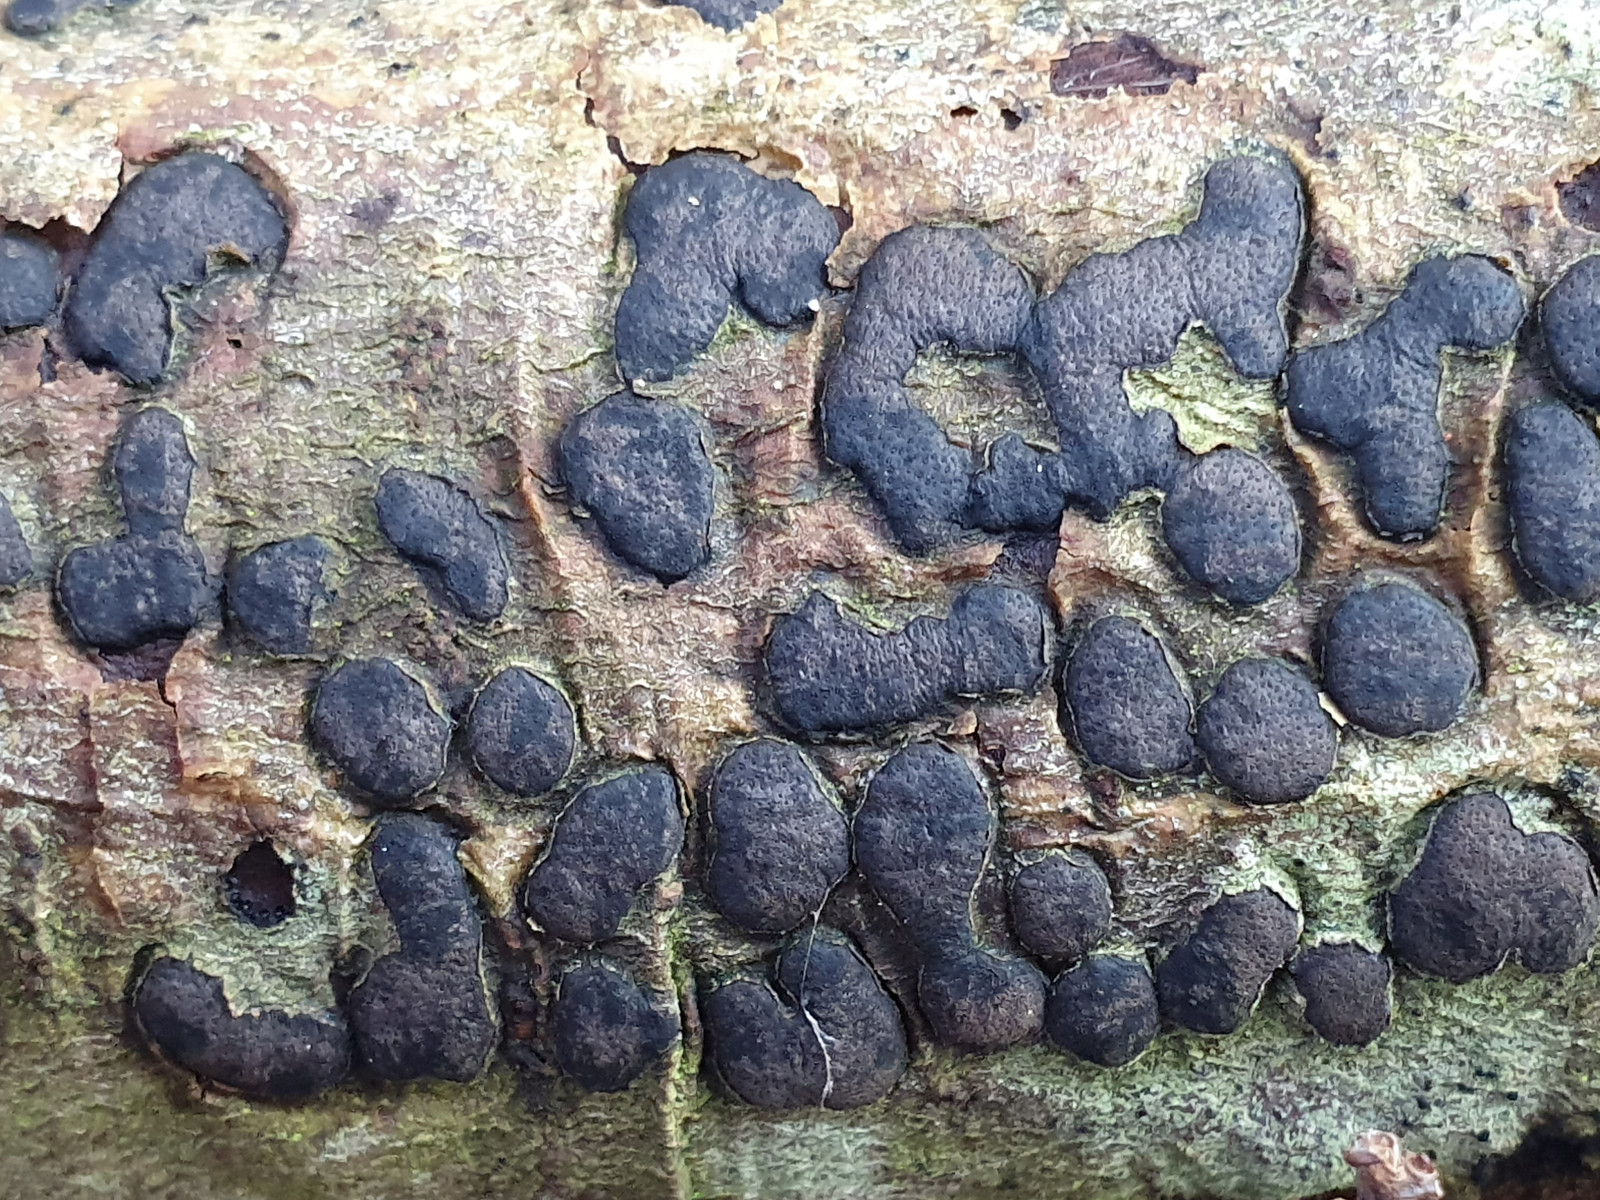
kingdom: Fungi
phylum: Ascomycota
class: Sordariomycetes
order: Xylariales
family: Diatrypaceae
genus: Diatrype
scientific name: Diatrype bullata
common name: pile-kulskorpe
